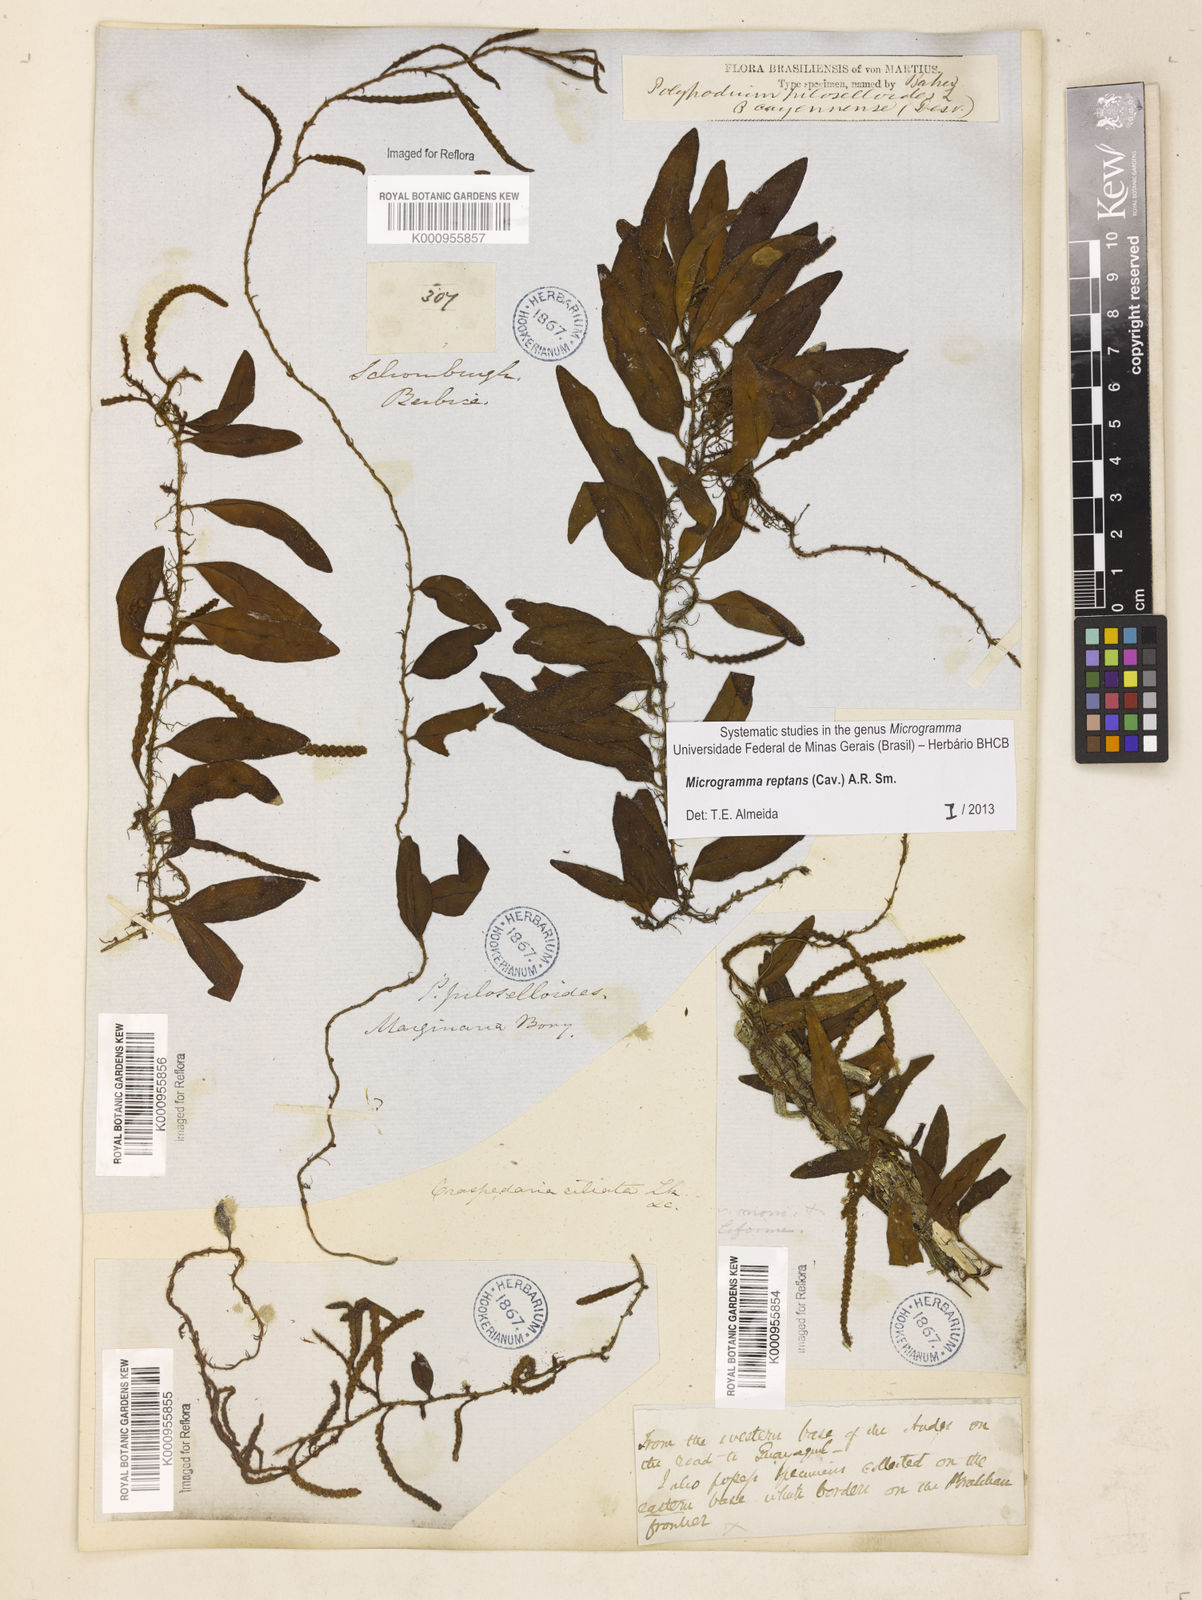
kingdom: Plantae
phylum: Tracheophyta
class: Polypodiopsida
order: Polypodiales
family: Polypodiaceae
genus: Microgramma
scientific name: Microgramma reptans
